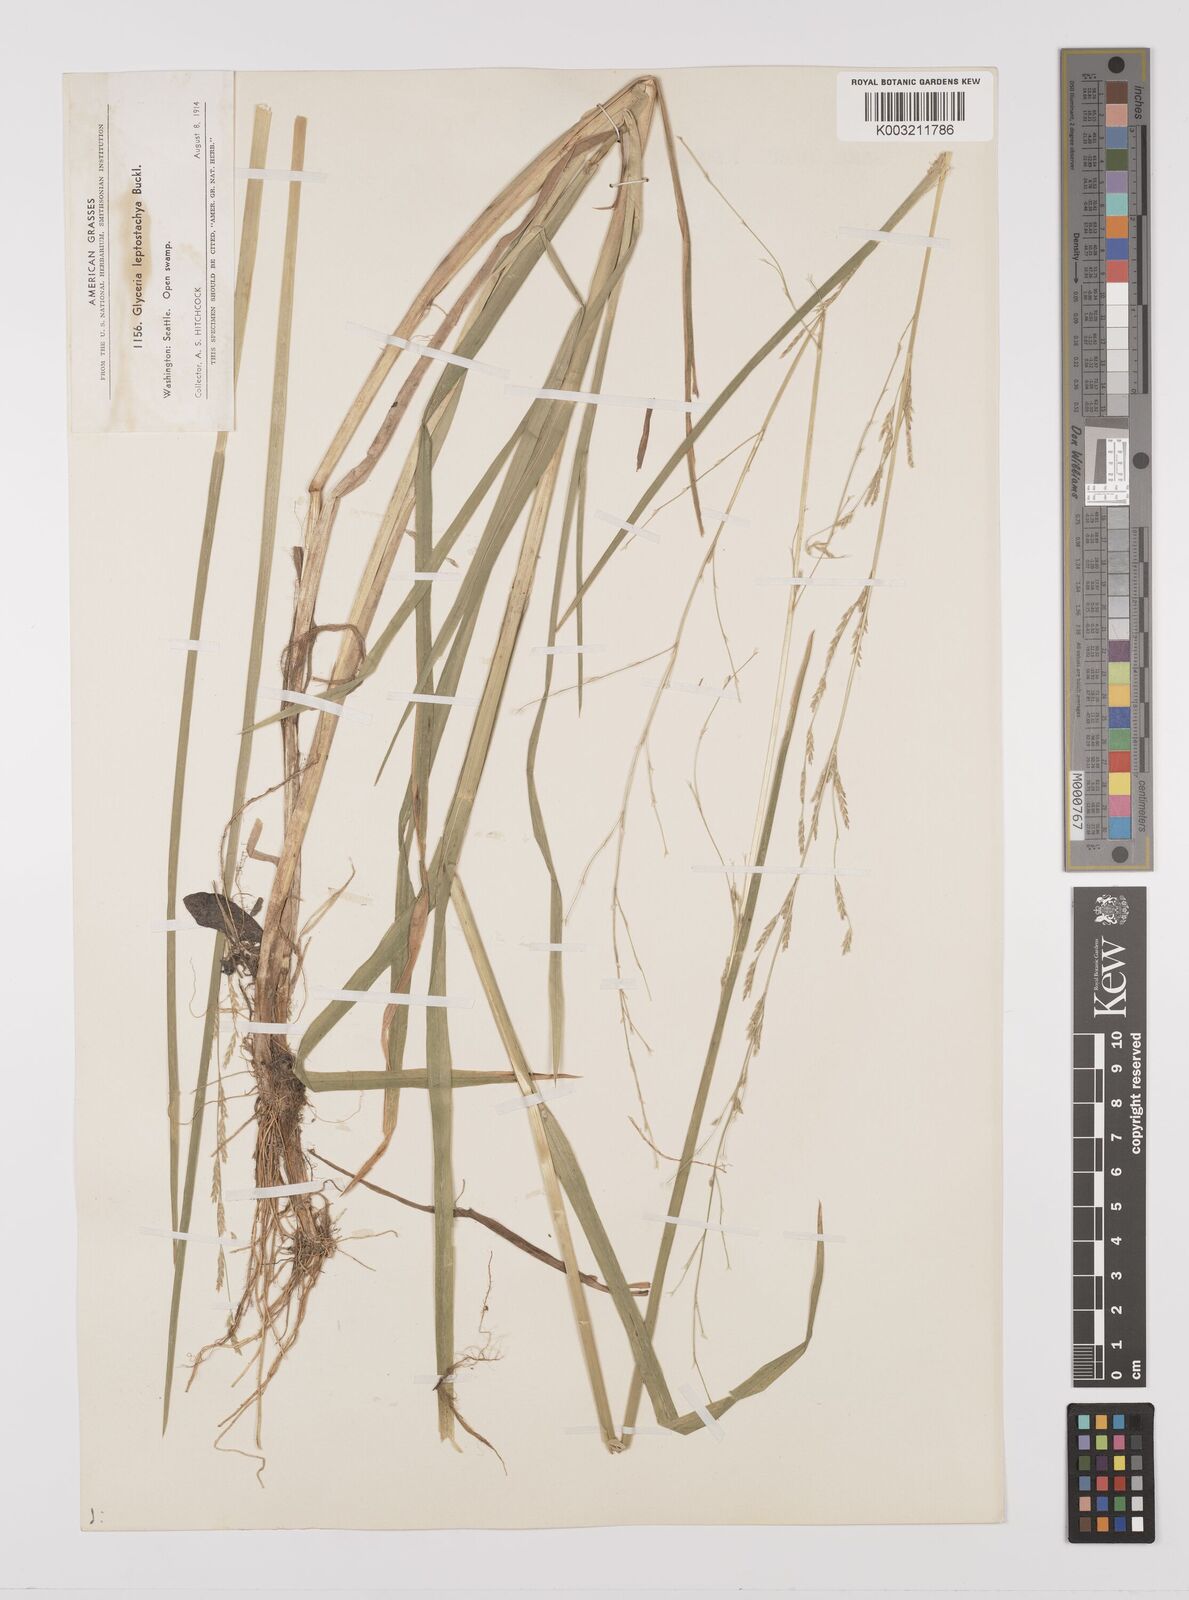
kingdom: Plantae
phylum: Tracheophyta
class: Liliopsida
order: Poales
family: Poaceae
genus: Glyceria
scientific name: Glyceria leptostachya
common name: Davy's mannagrass
